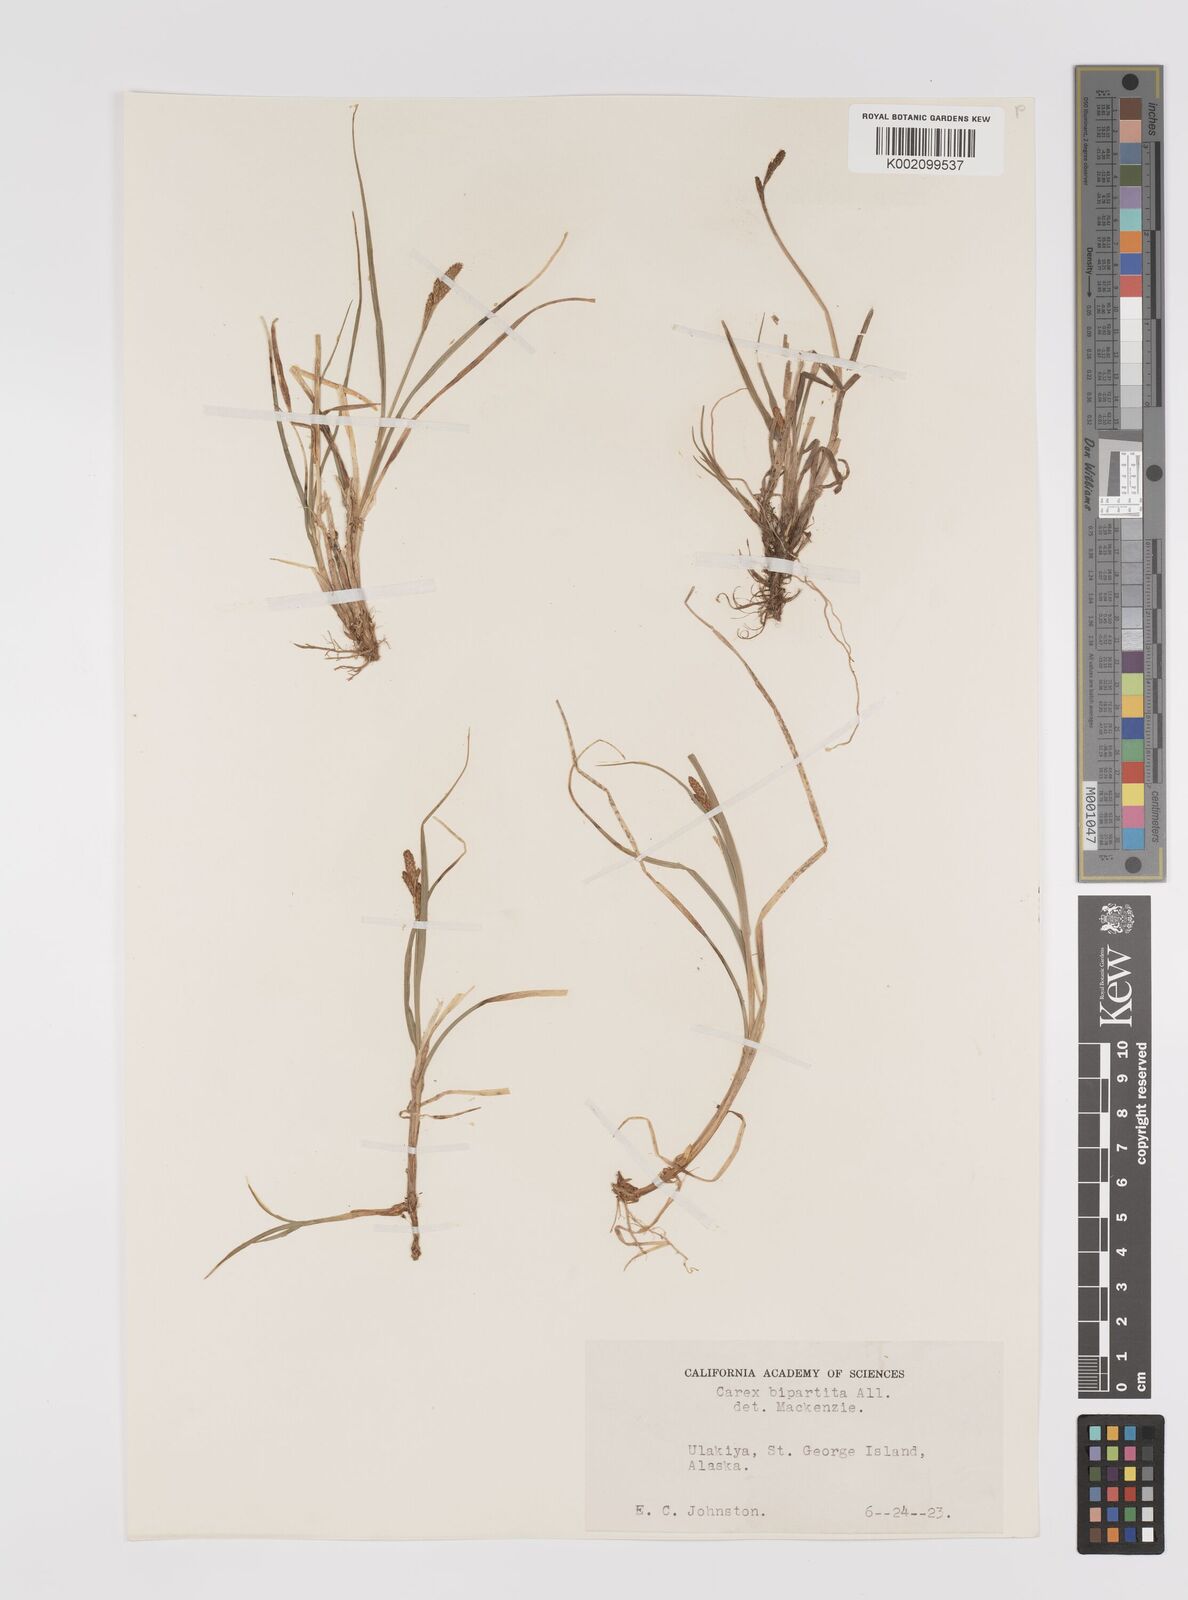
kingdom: Plantae
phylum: Tracheophyta
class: Liliopsida
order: Poales
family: Cyperaceae
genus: Carex
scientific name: Carex lachenalii
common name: Hare's-foot sedge
